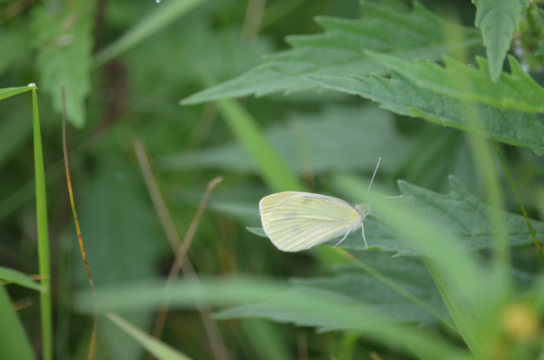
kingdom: Animalia
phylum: Arthropoda
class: Insecta
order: Lepidoptera
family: Pieridae
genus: Pieris
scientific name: Pieris rapae
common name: Cabbage White
